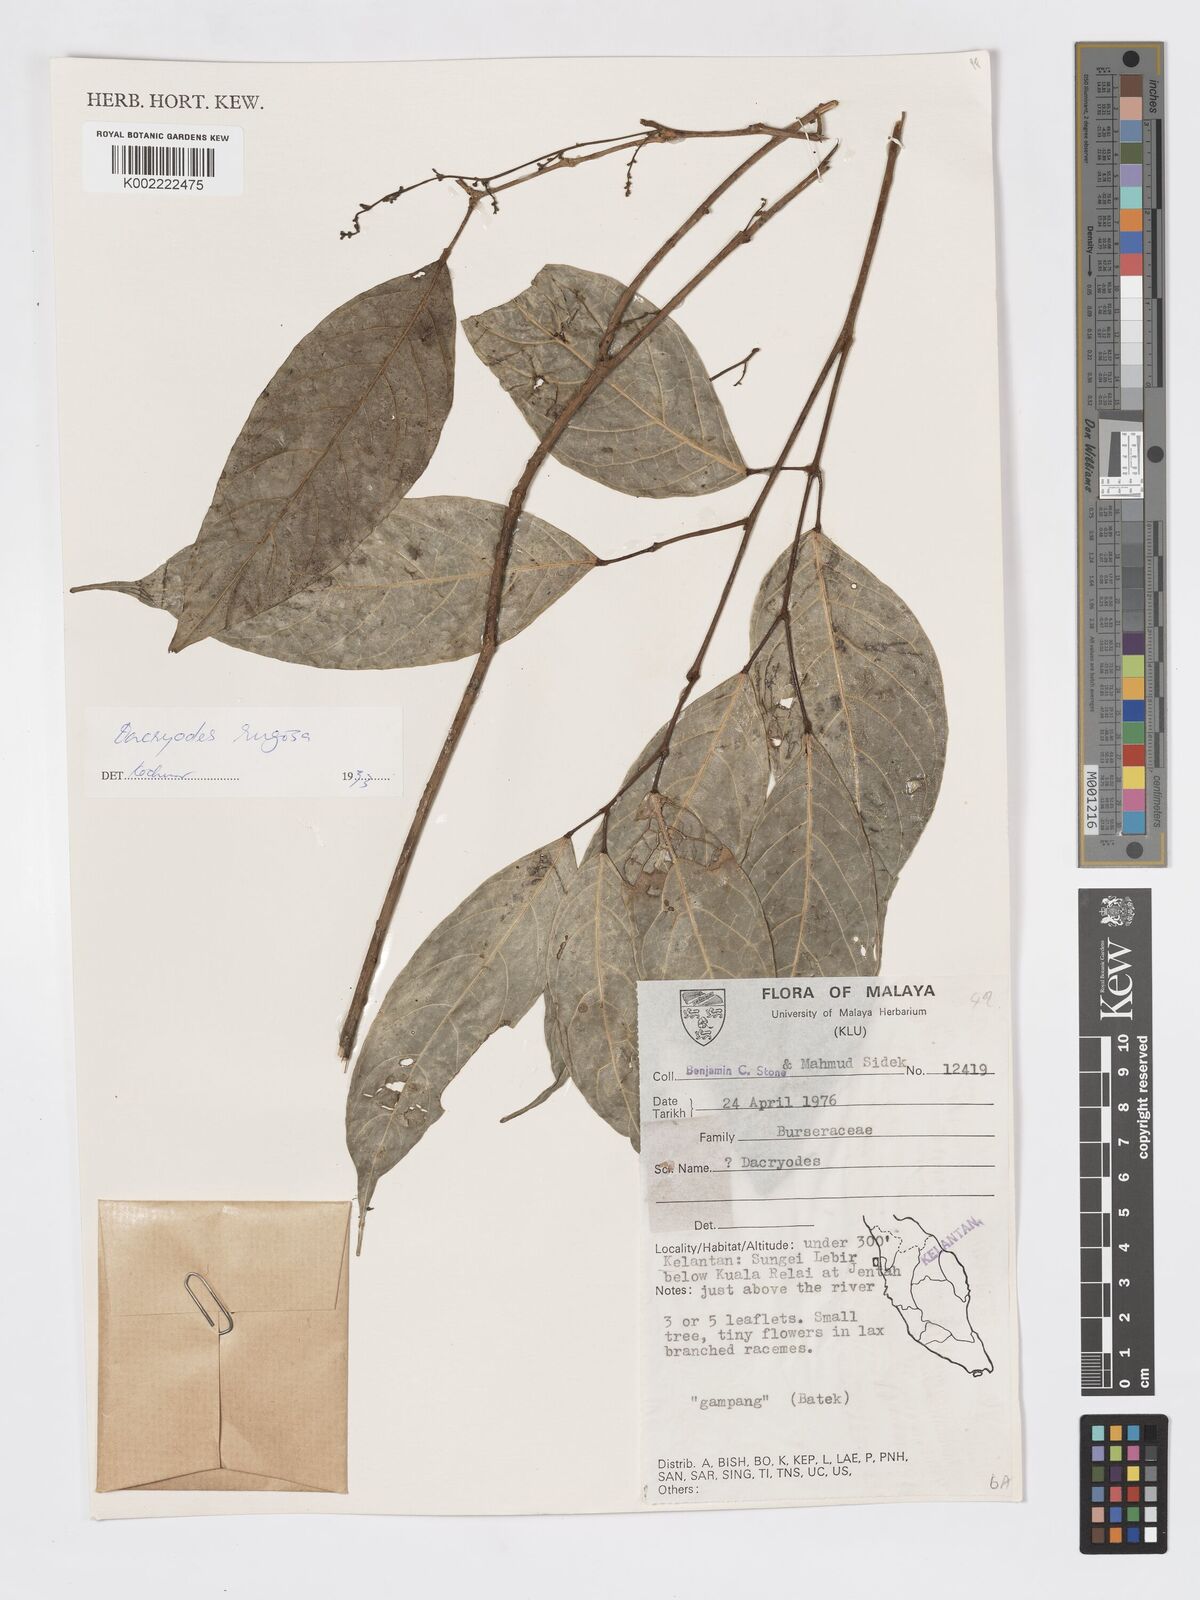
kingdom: Plantae
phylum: Tracheophyta
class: Magnoliopsida
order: Sapindales
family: Burseraceae
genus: Dacryodes
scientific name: Dacryodes rugosa
